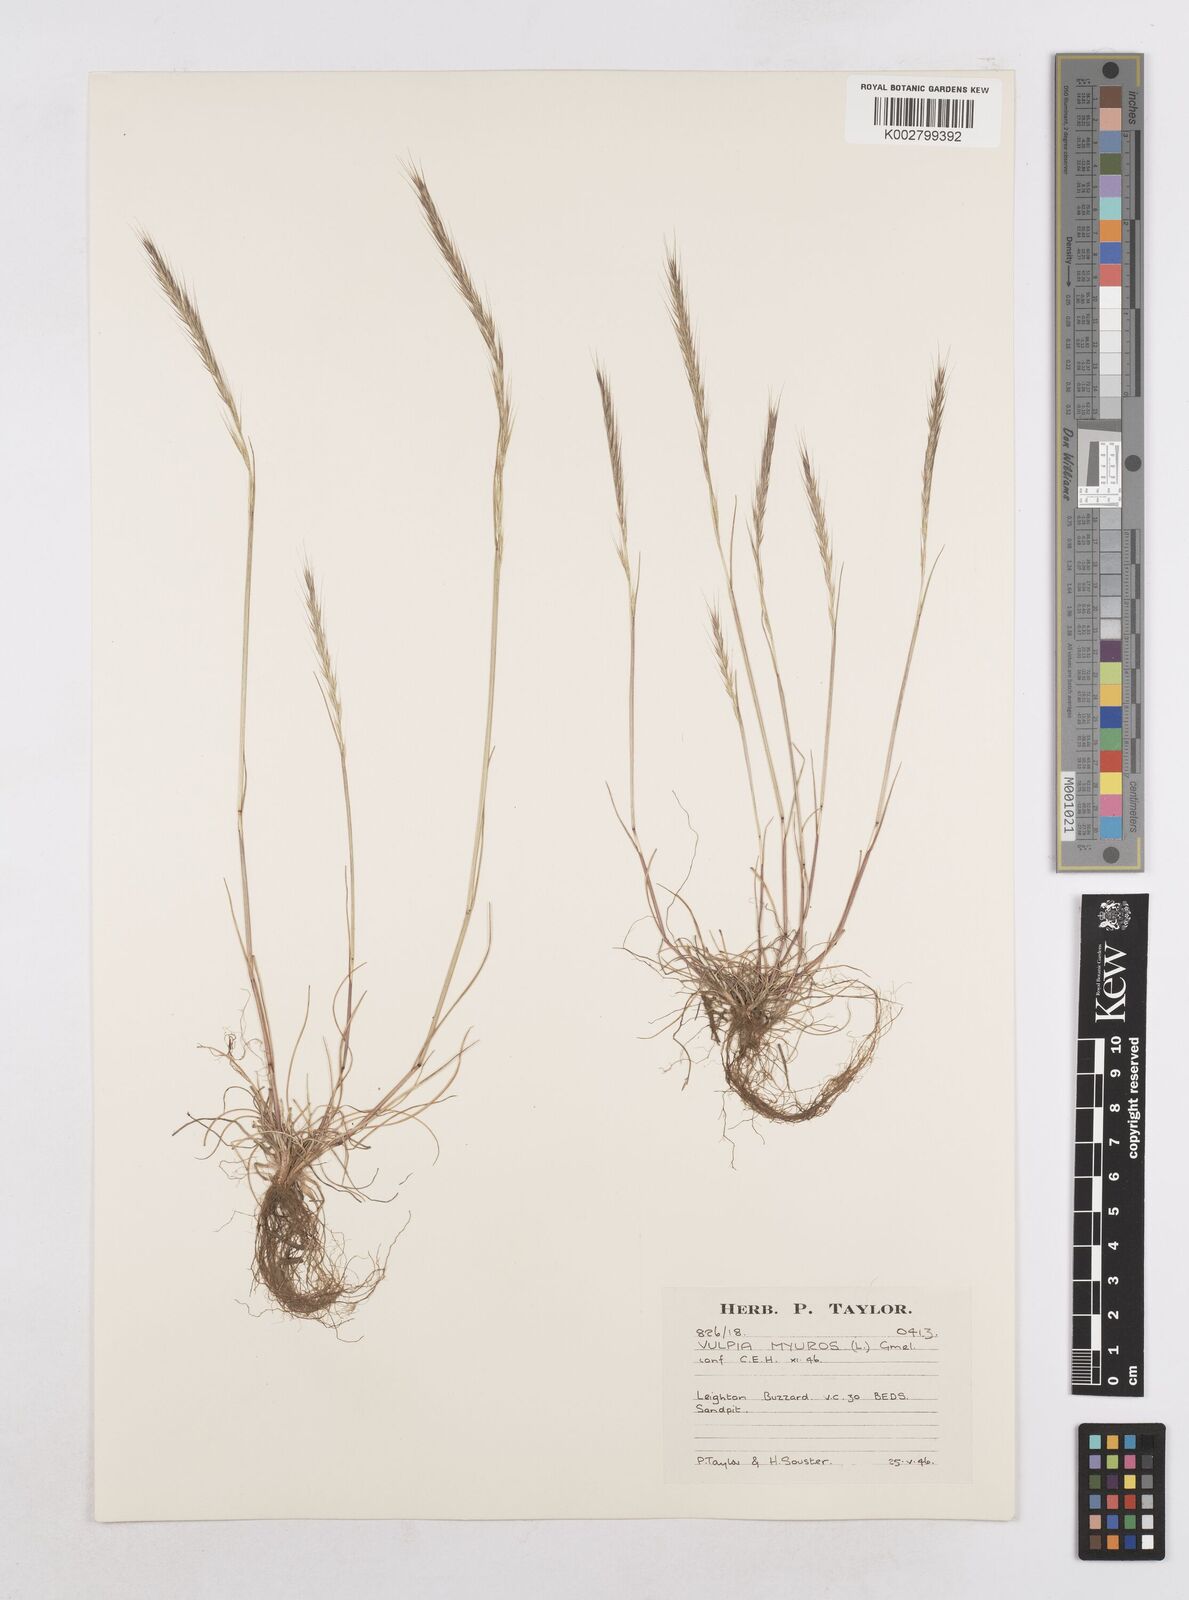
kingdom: Plantae
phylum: Tracheophyta
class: Liliopsida
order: Poales
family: Poaceae
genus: Festuca
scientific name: Festuca myuros
